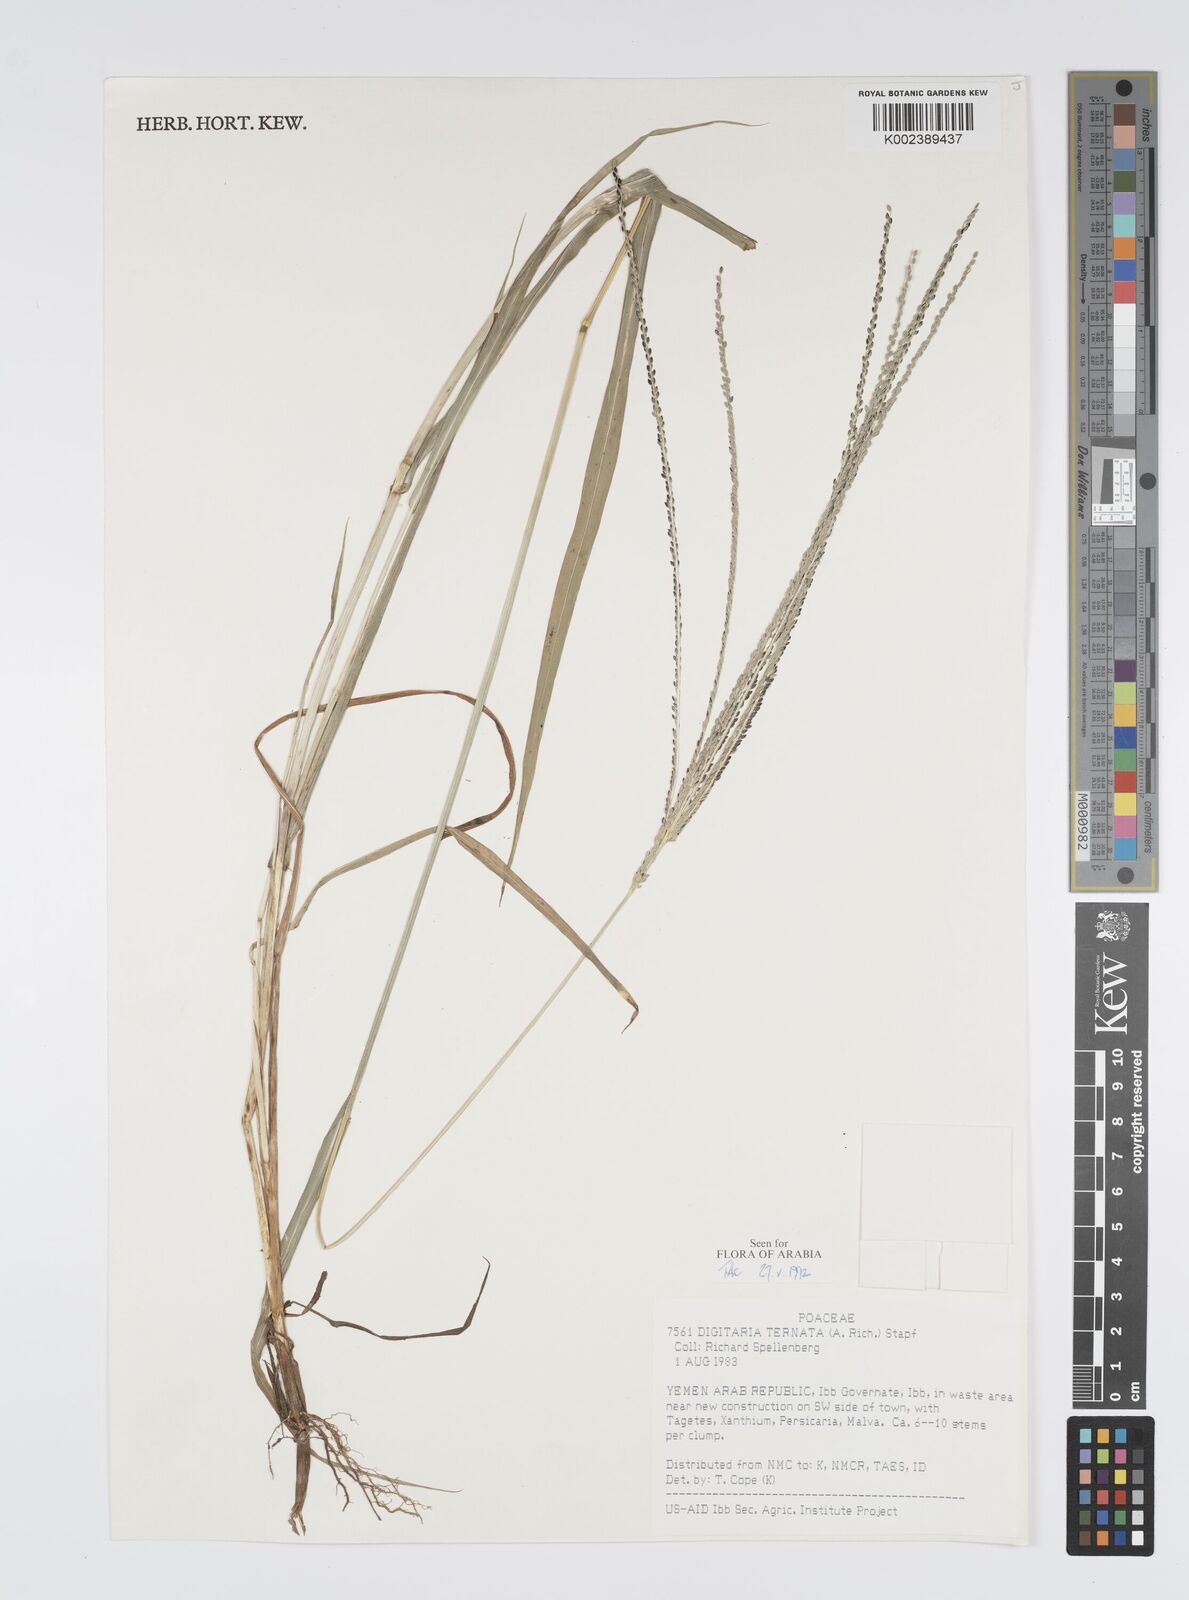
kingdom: Plantae
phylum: Tracheophyta
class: Liliopsida
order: Poales
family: Poaceae
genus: Digitaria
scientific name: Digitaria ternata
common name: Blackseed crabgrass
